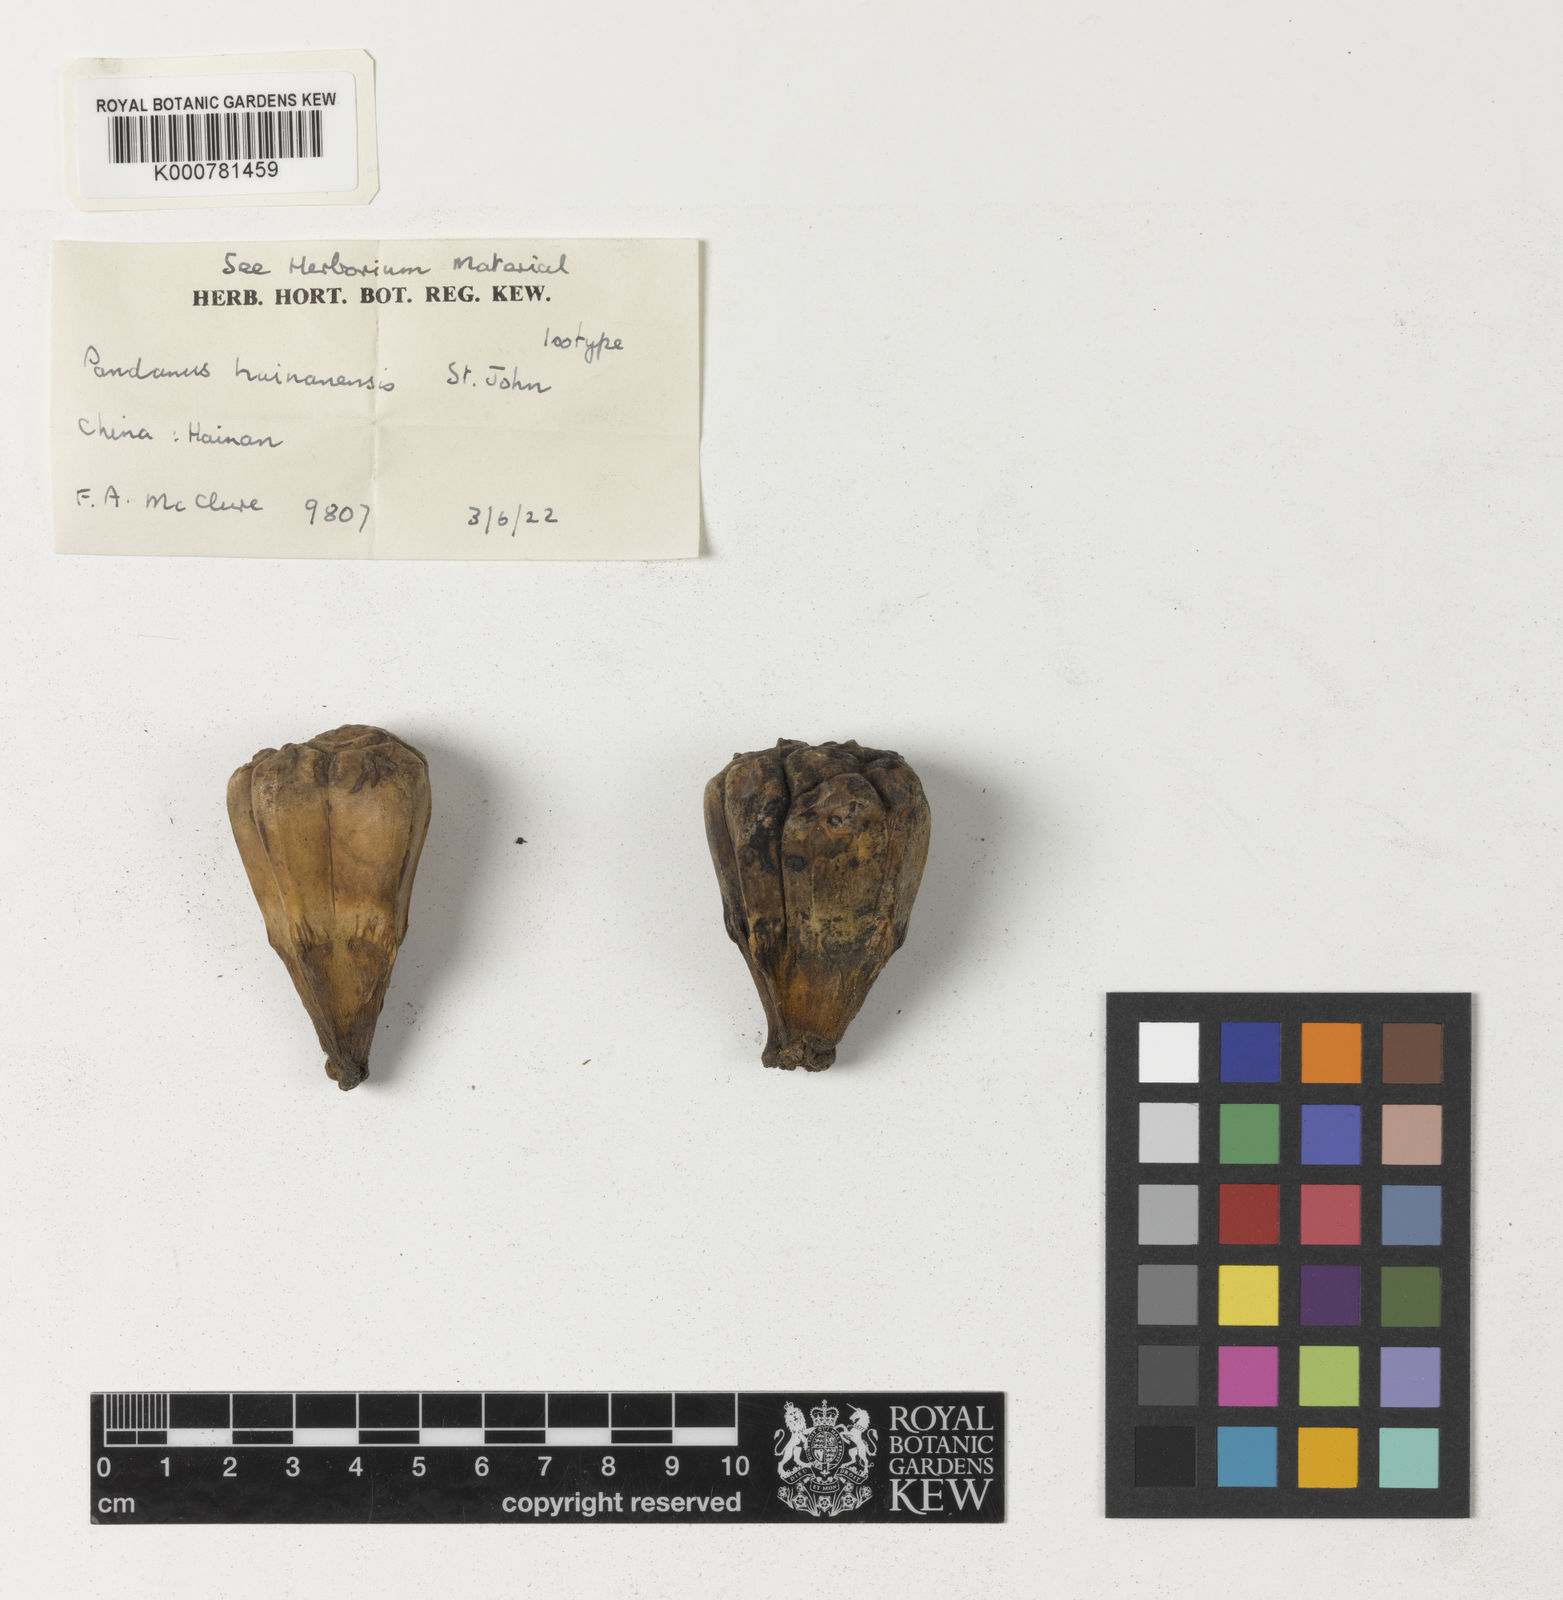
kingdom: Plantae
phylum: Tracheophyta
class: Liliopsida
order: Pandanales
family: Pandanaceae
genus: Pandanus
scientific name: Pandanus
